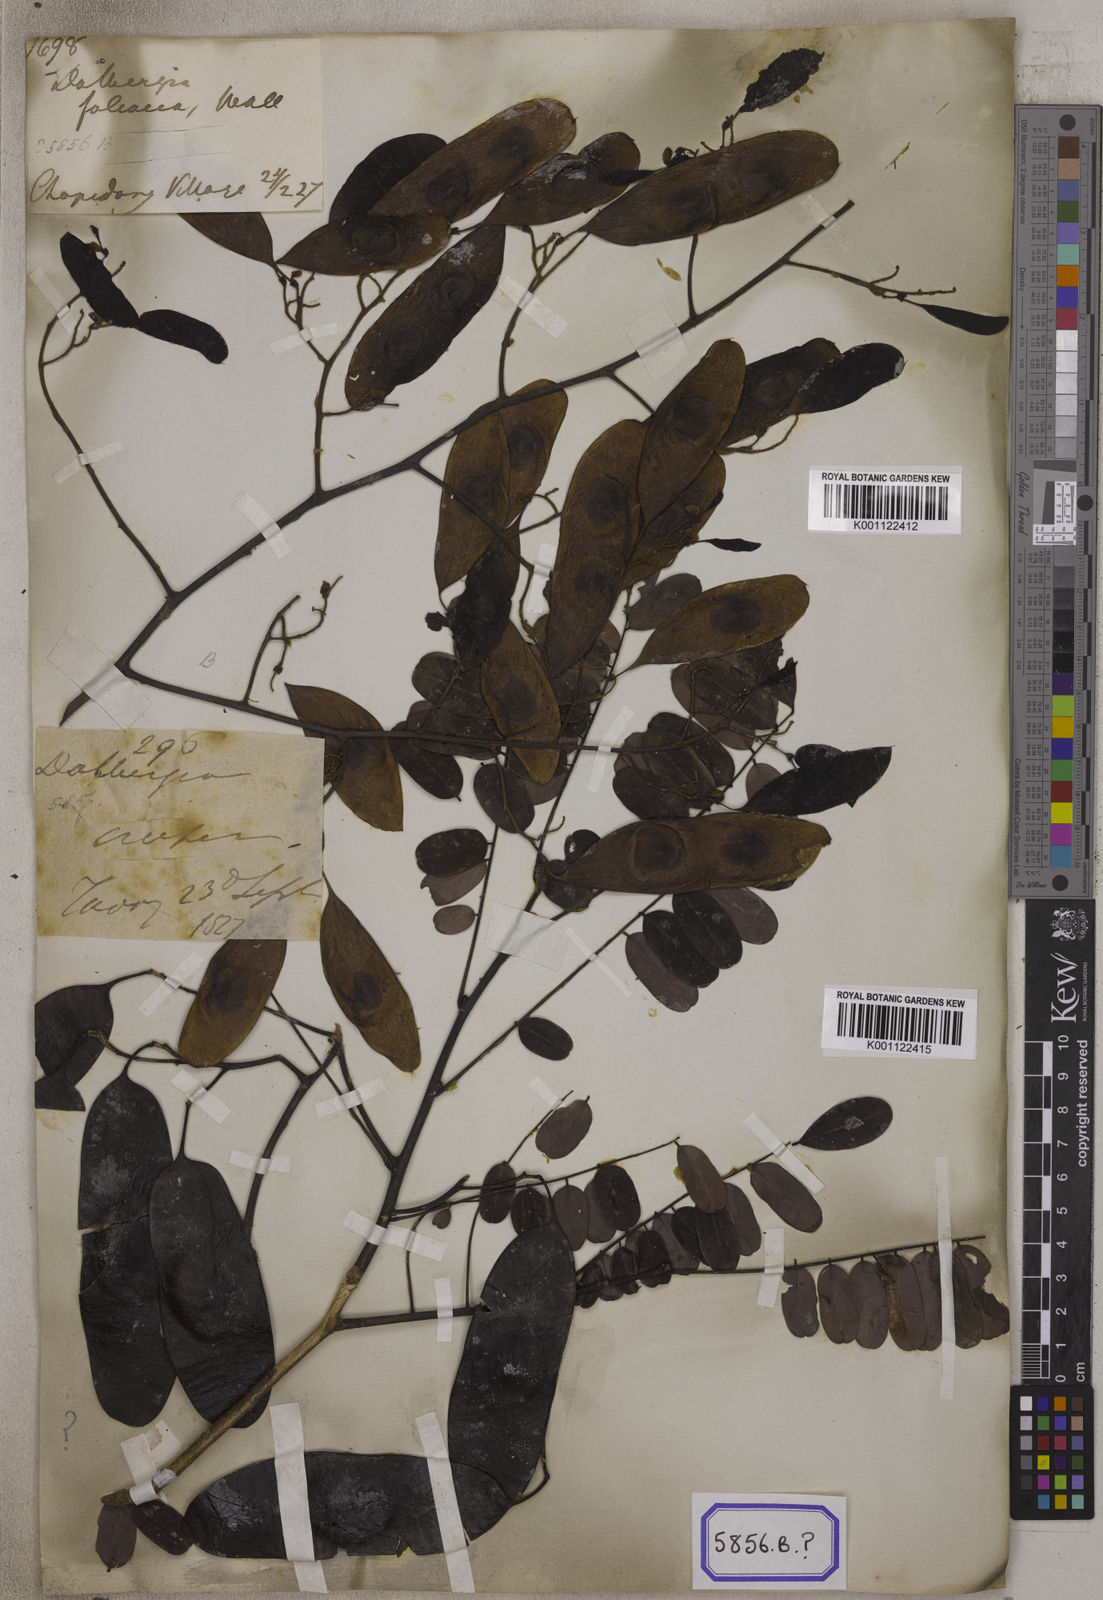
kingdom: Plantae
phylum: Tracheophyta
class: Magnoliopsida
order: Fabales
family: Fabaceae
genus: Dalbergia
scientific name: Dalbergia
